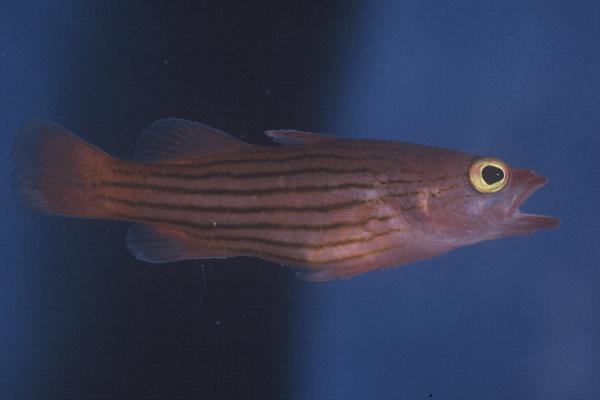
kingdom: Animalia
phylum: Chordata
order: Perciformes
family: Serranidae
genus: Liopropoma
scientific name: Liopropoma susumi
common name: Striped basslet
